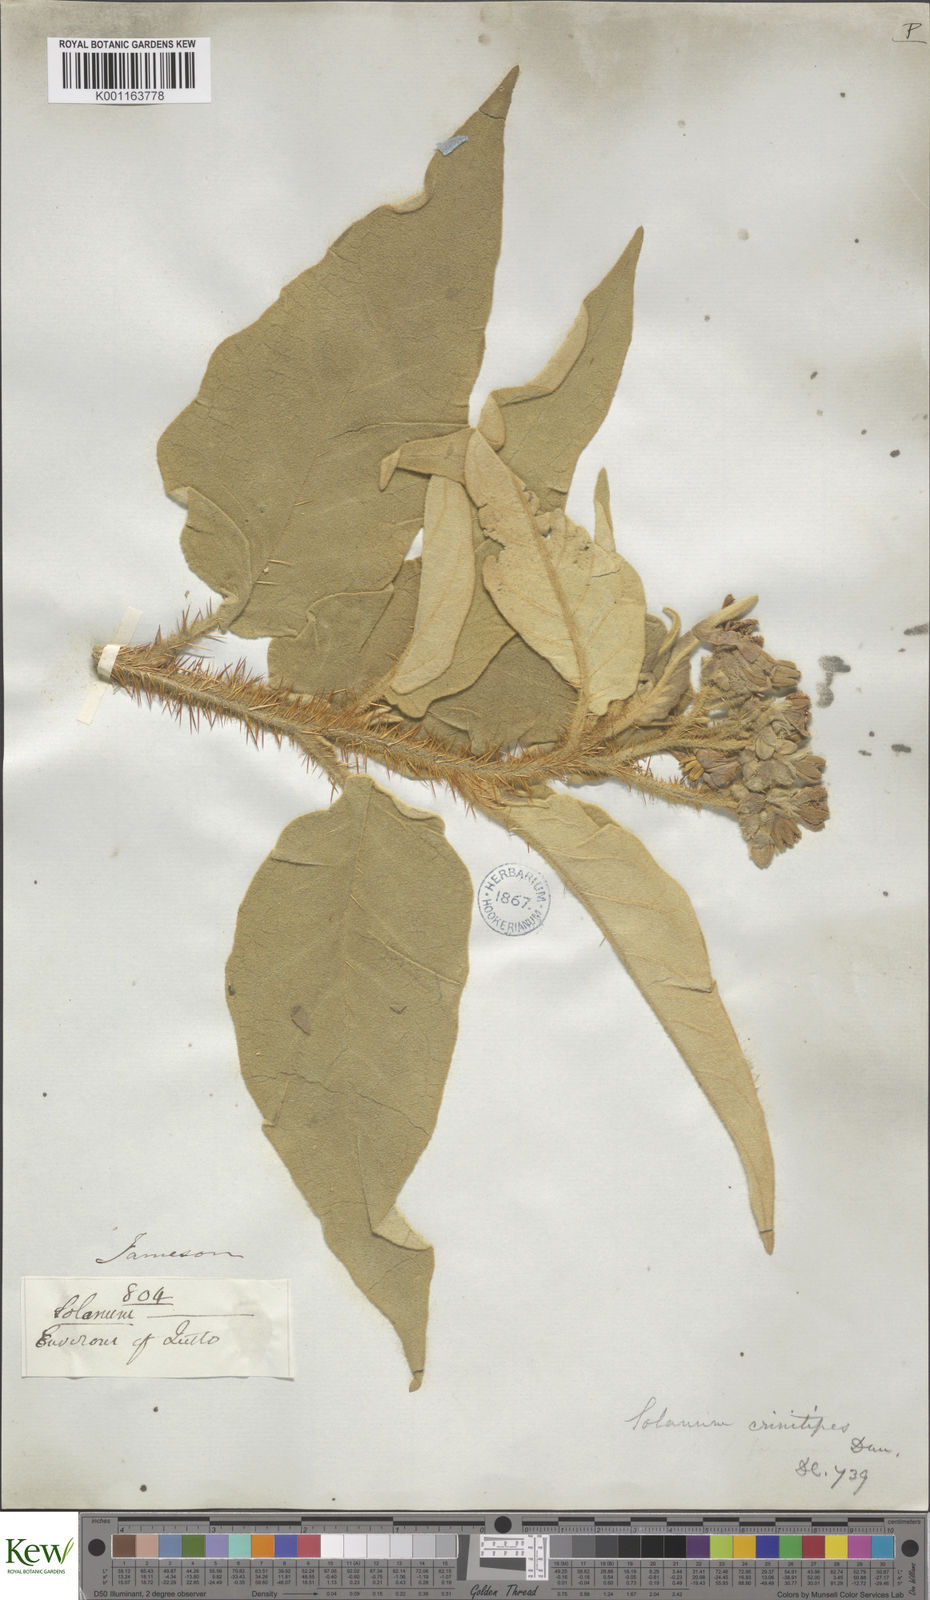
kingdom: Plantae
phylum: Tracheophyta
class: Magnoliopsida
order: Solanales
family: Solanaceae
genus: Solanum
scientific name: Solanum crinitipes
